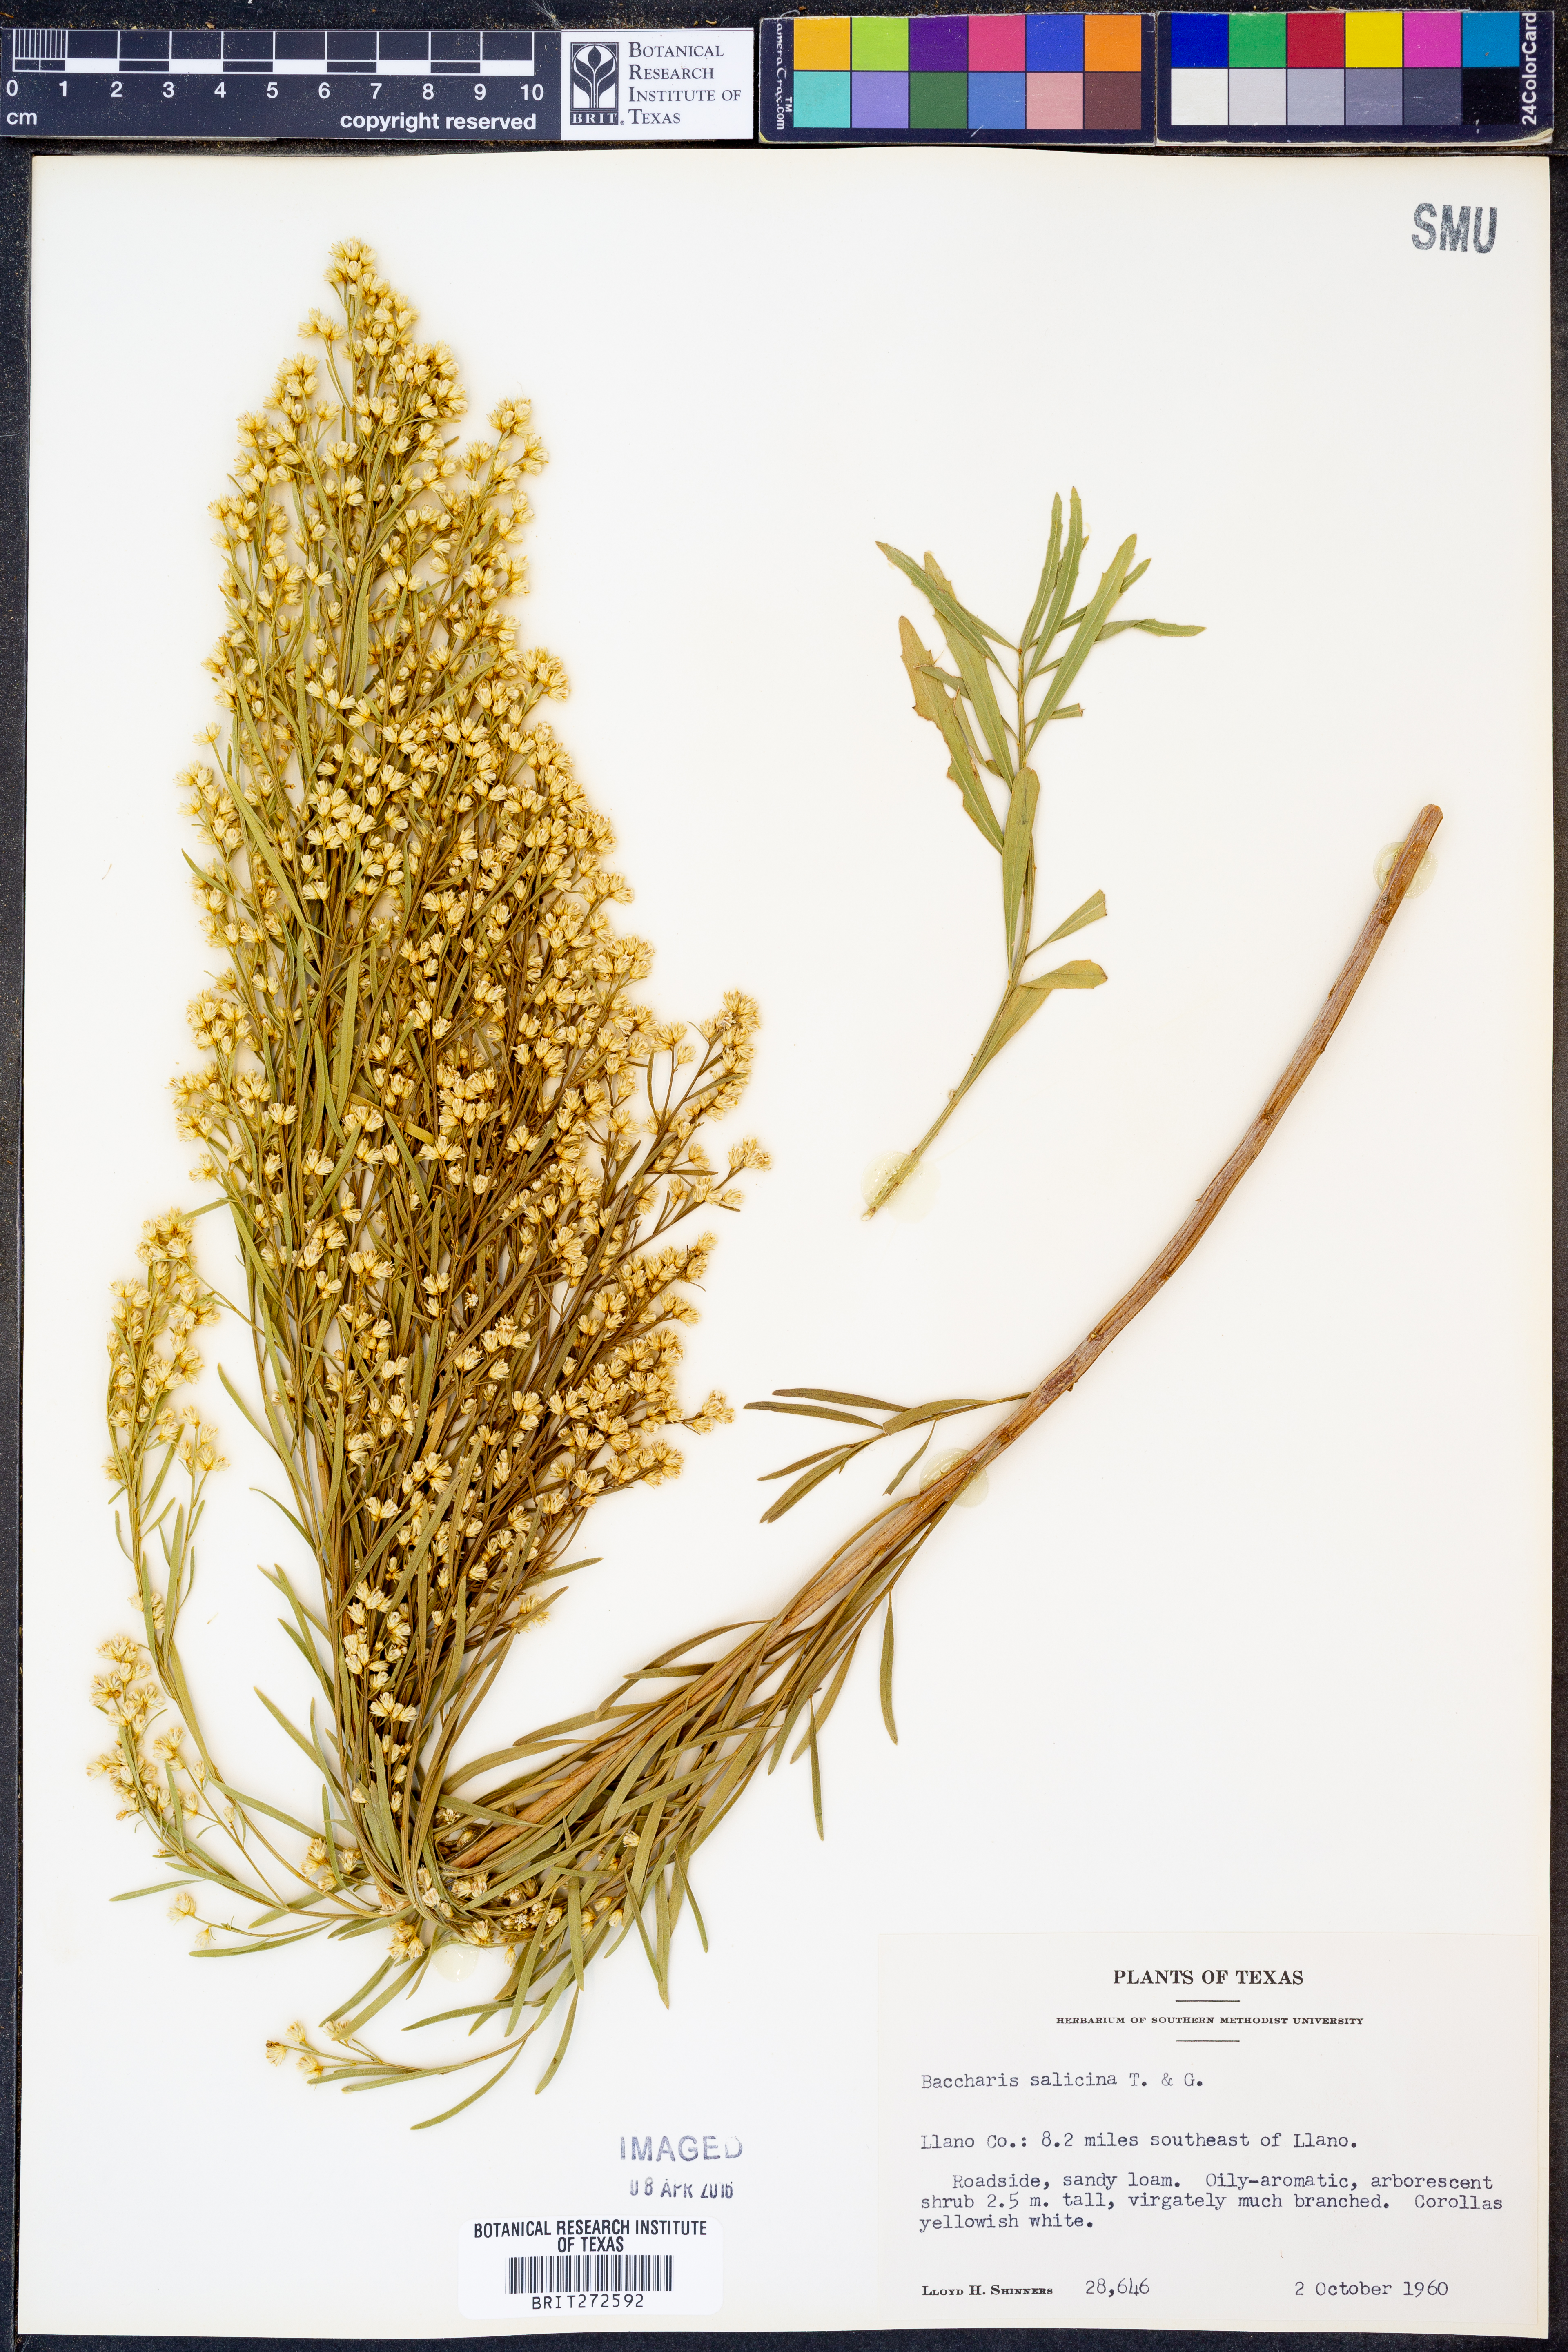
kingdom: Plantae
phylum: Tracheophyta
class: Magnoliopsida
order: Asterales
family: Asteraceae
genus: Baccharis
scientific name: Baccharis salicina
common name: Willow baccharis
